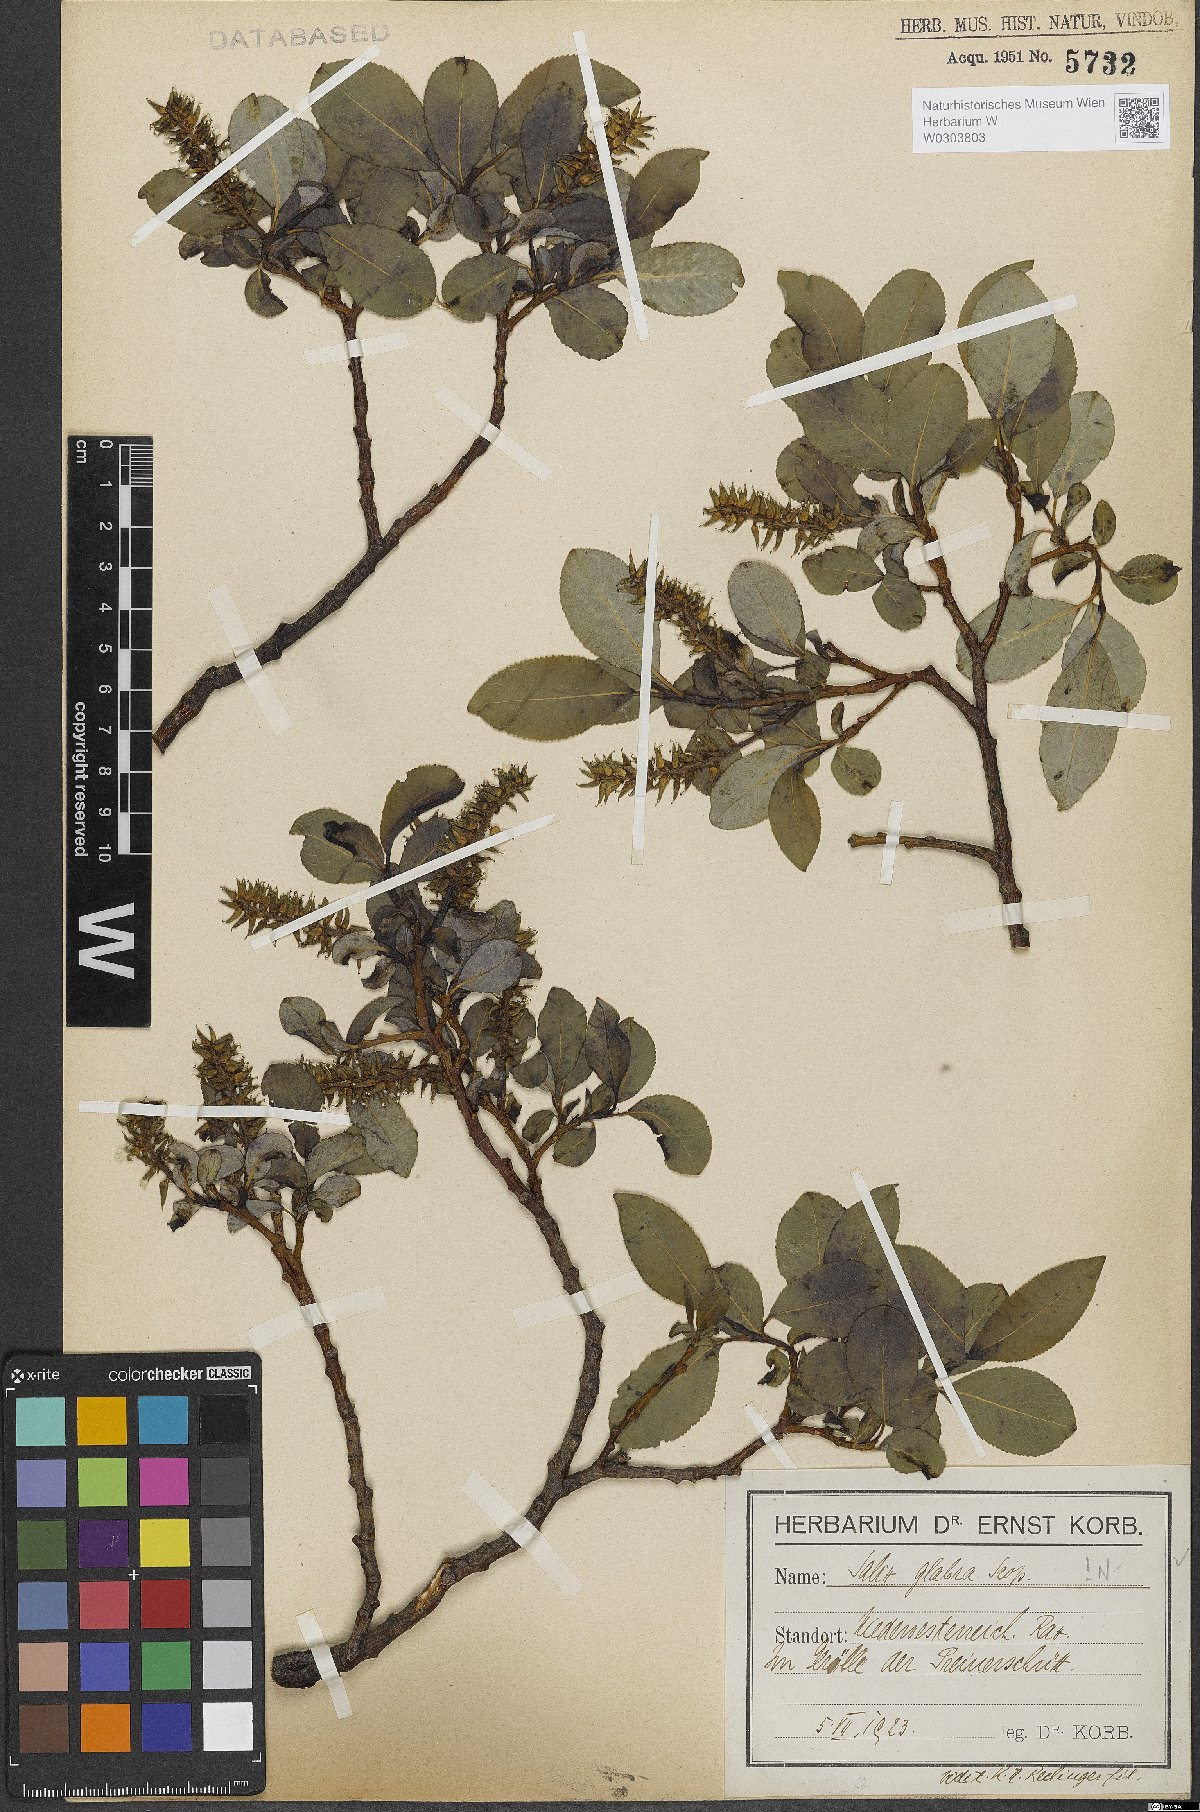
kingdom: Plantae
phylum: Tracheophyta
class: Magnoliopsida
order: Malpighiales
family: Salicaceae
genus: Salix
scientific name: Salix glabra
